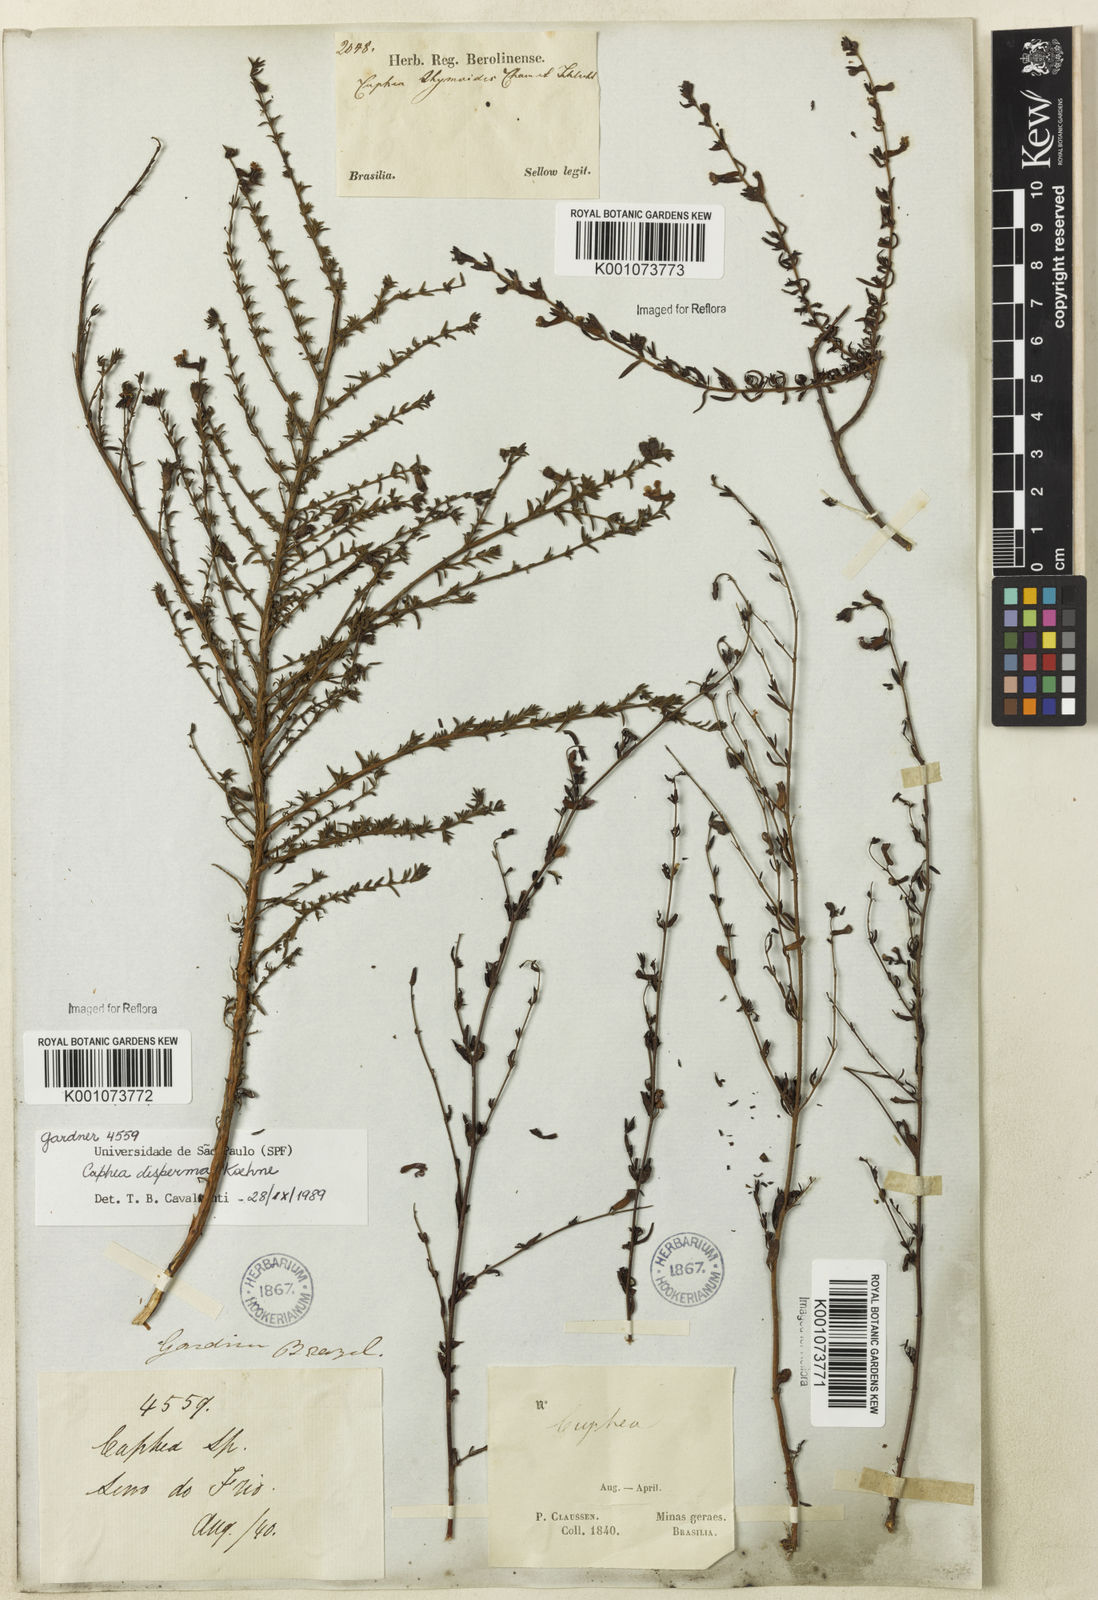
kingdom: Plantae
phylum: Tracheophyta
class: Magnoliopsida
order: Myrtales
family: Lythraceae
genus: Cuphea
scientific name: Cuphea disperma
